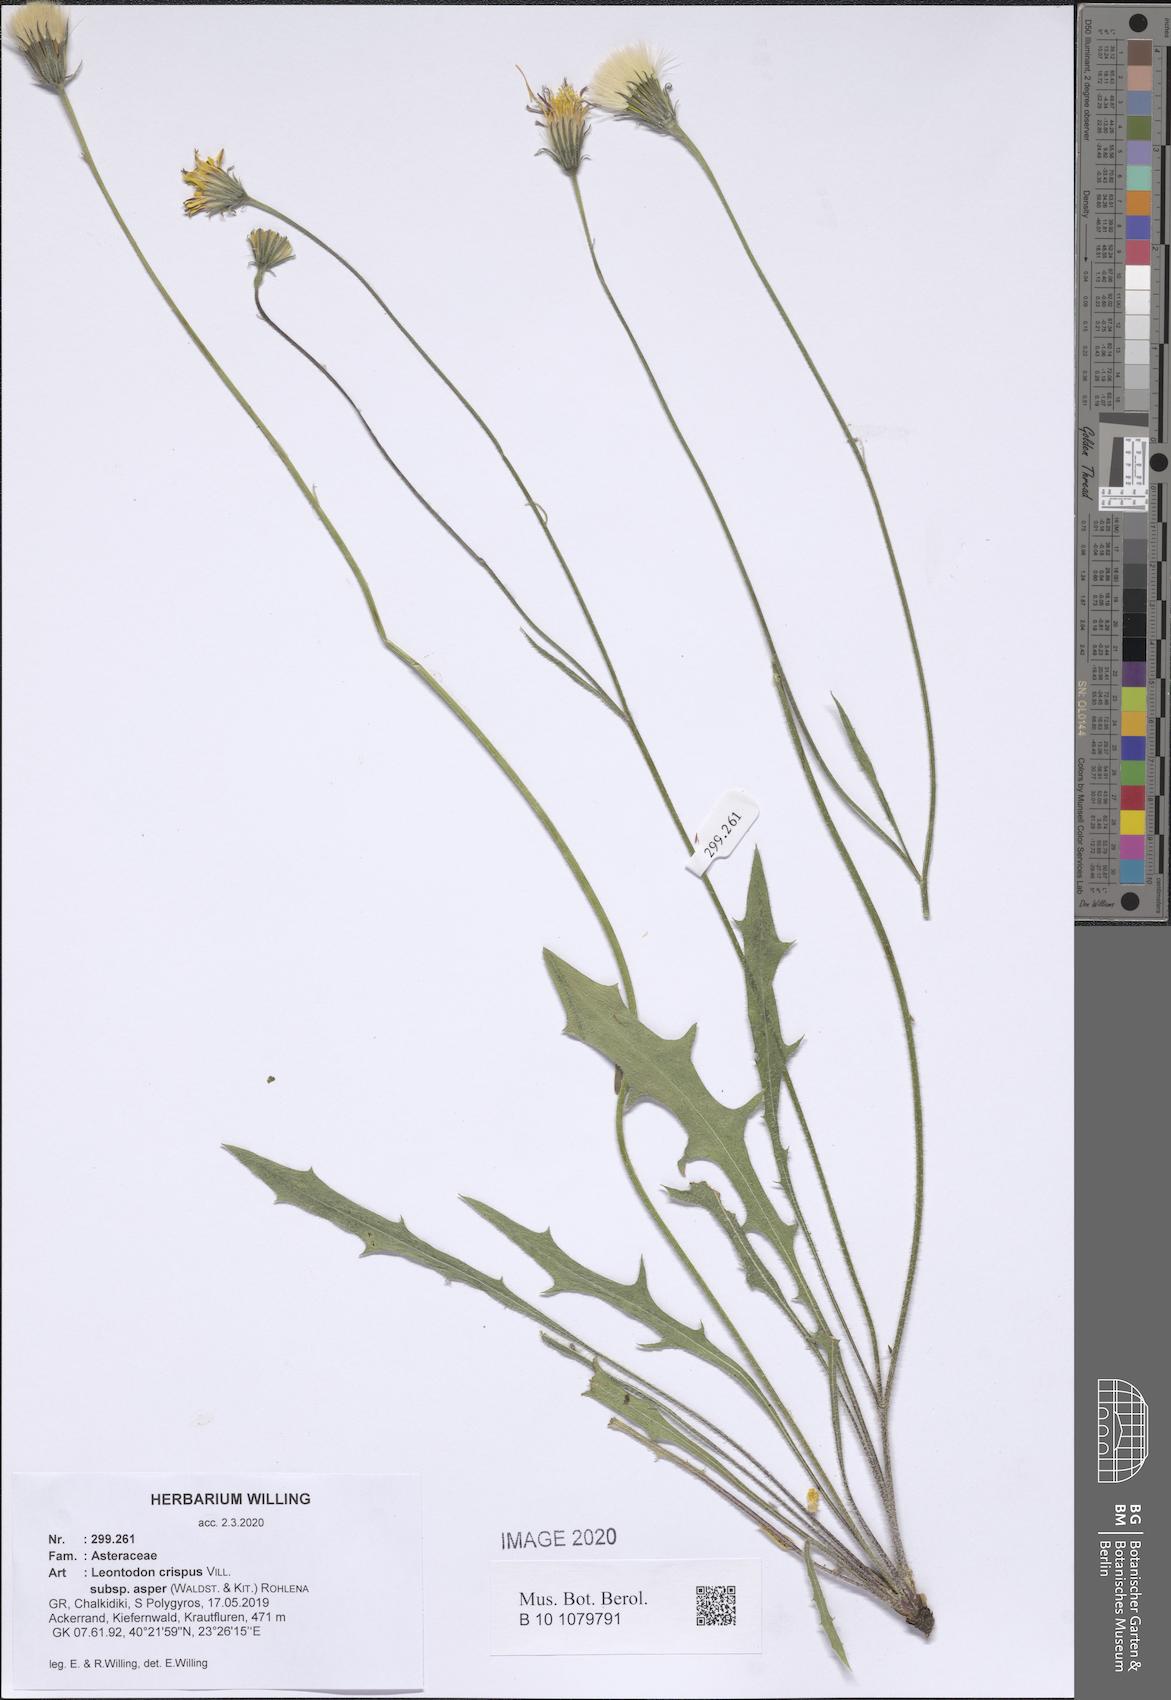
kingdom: Plantae
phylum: Tracheophyta
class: Magnoliopsida
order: Asterales
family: Asteraceae
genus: Leontodon
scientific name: Leontodon biscutellifolius
